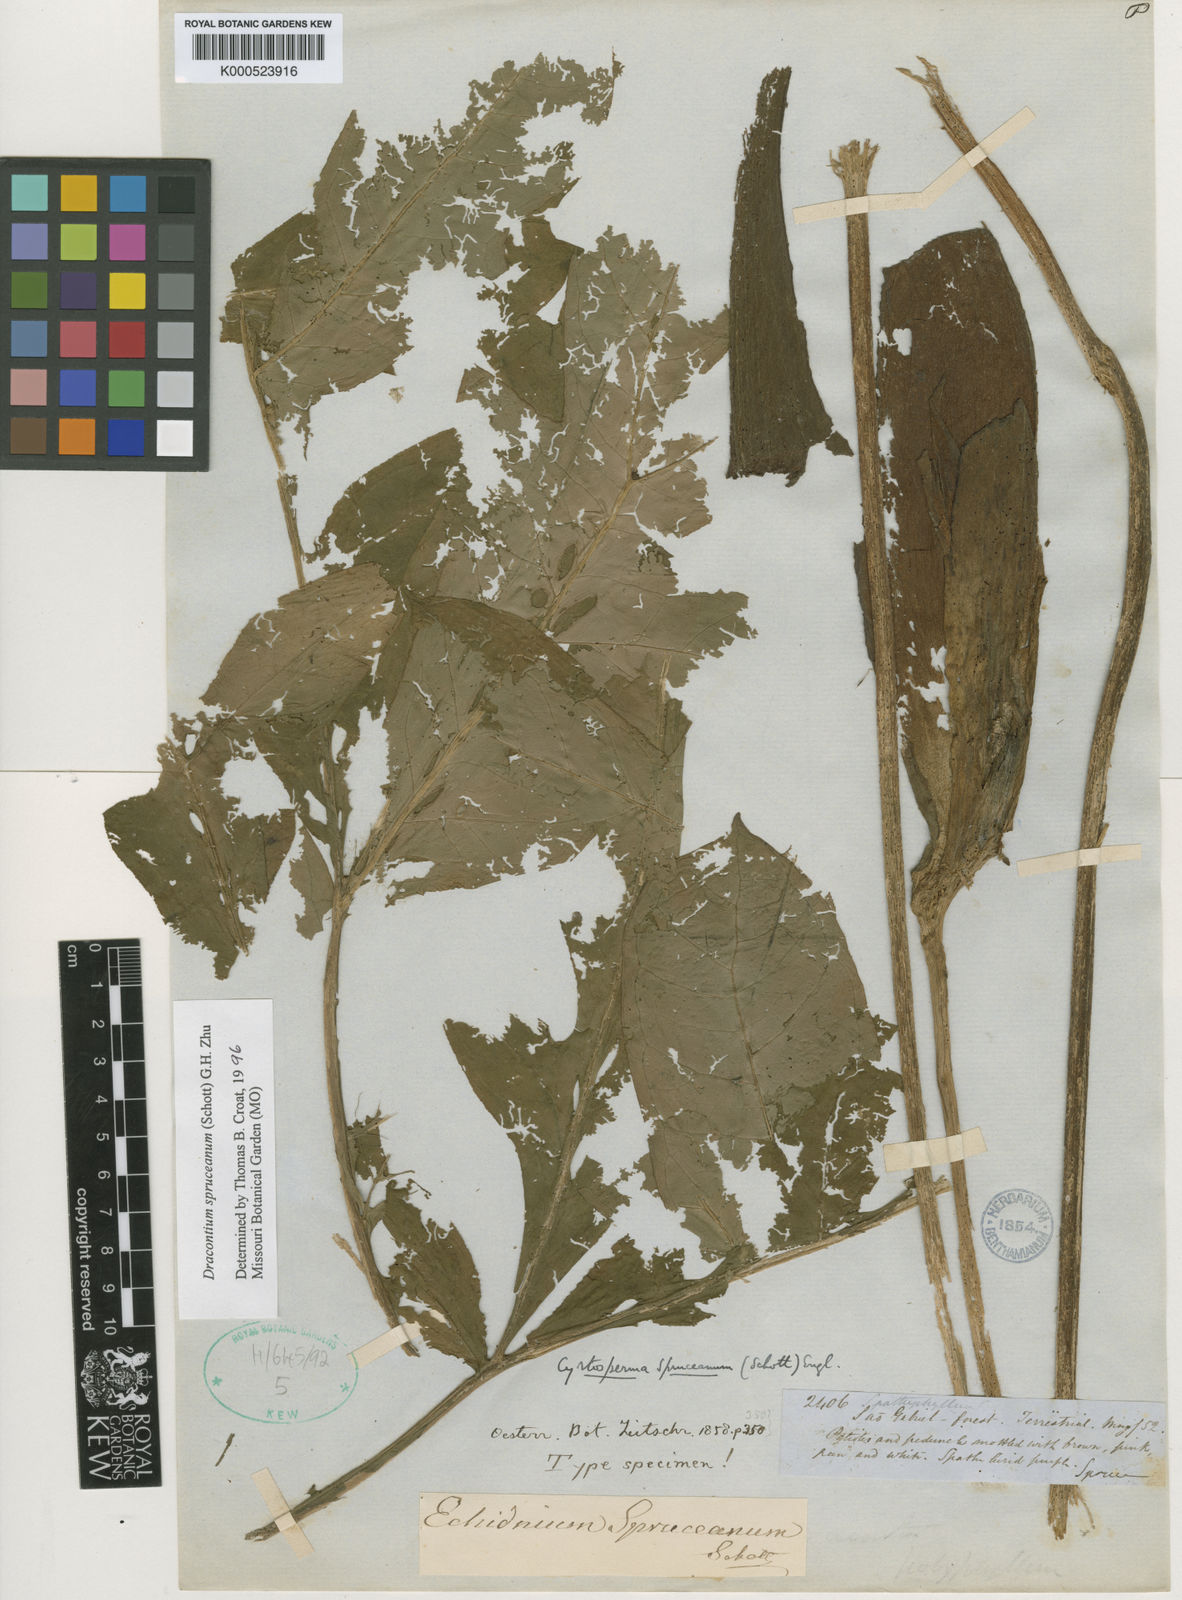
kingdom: Plantae
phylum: Tracheophyta
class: Liliopsida
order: Alismatales
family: Araceae
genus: Dracontium
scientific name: Dracontium spruceanum
